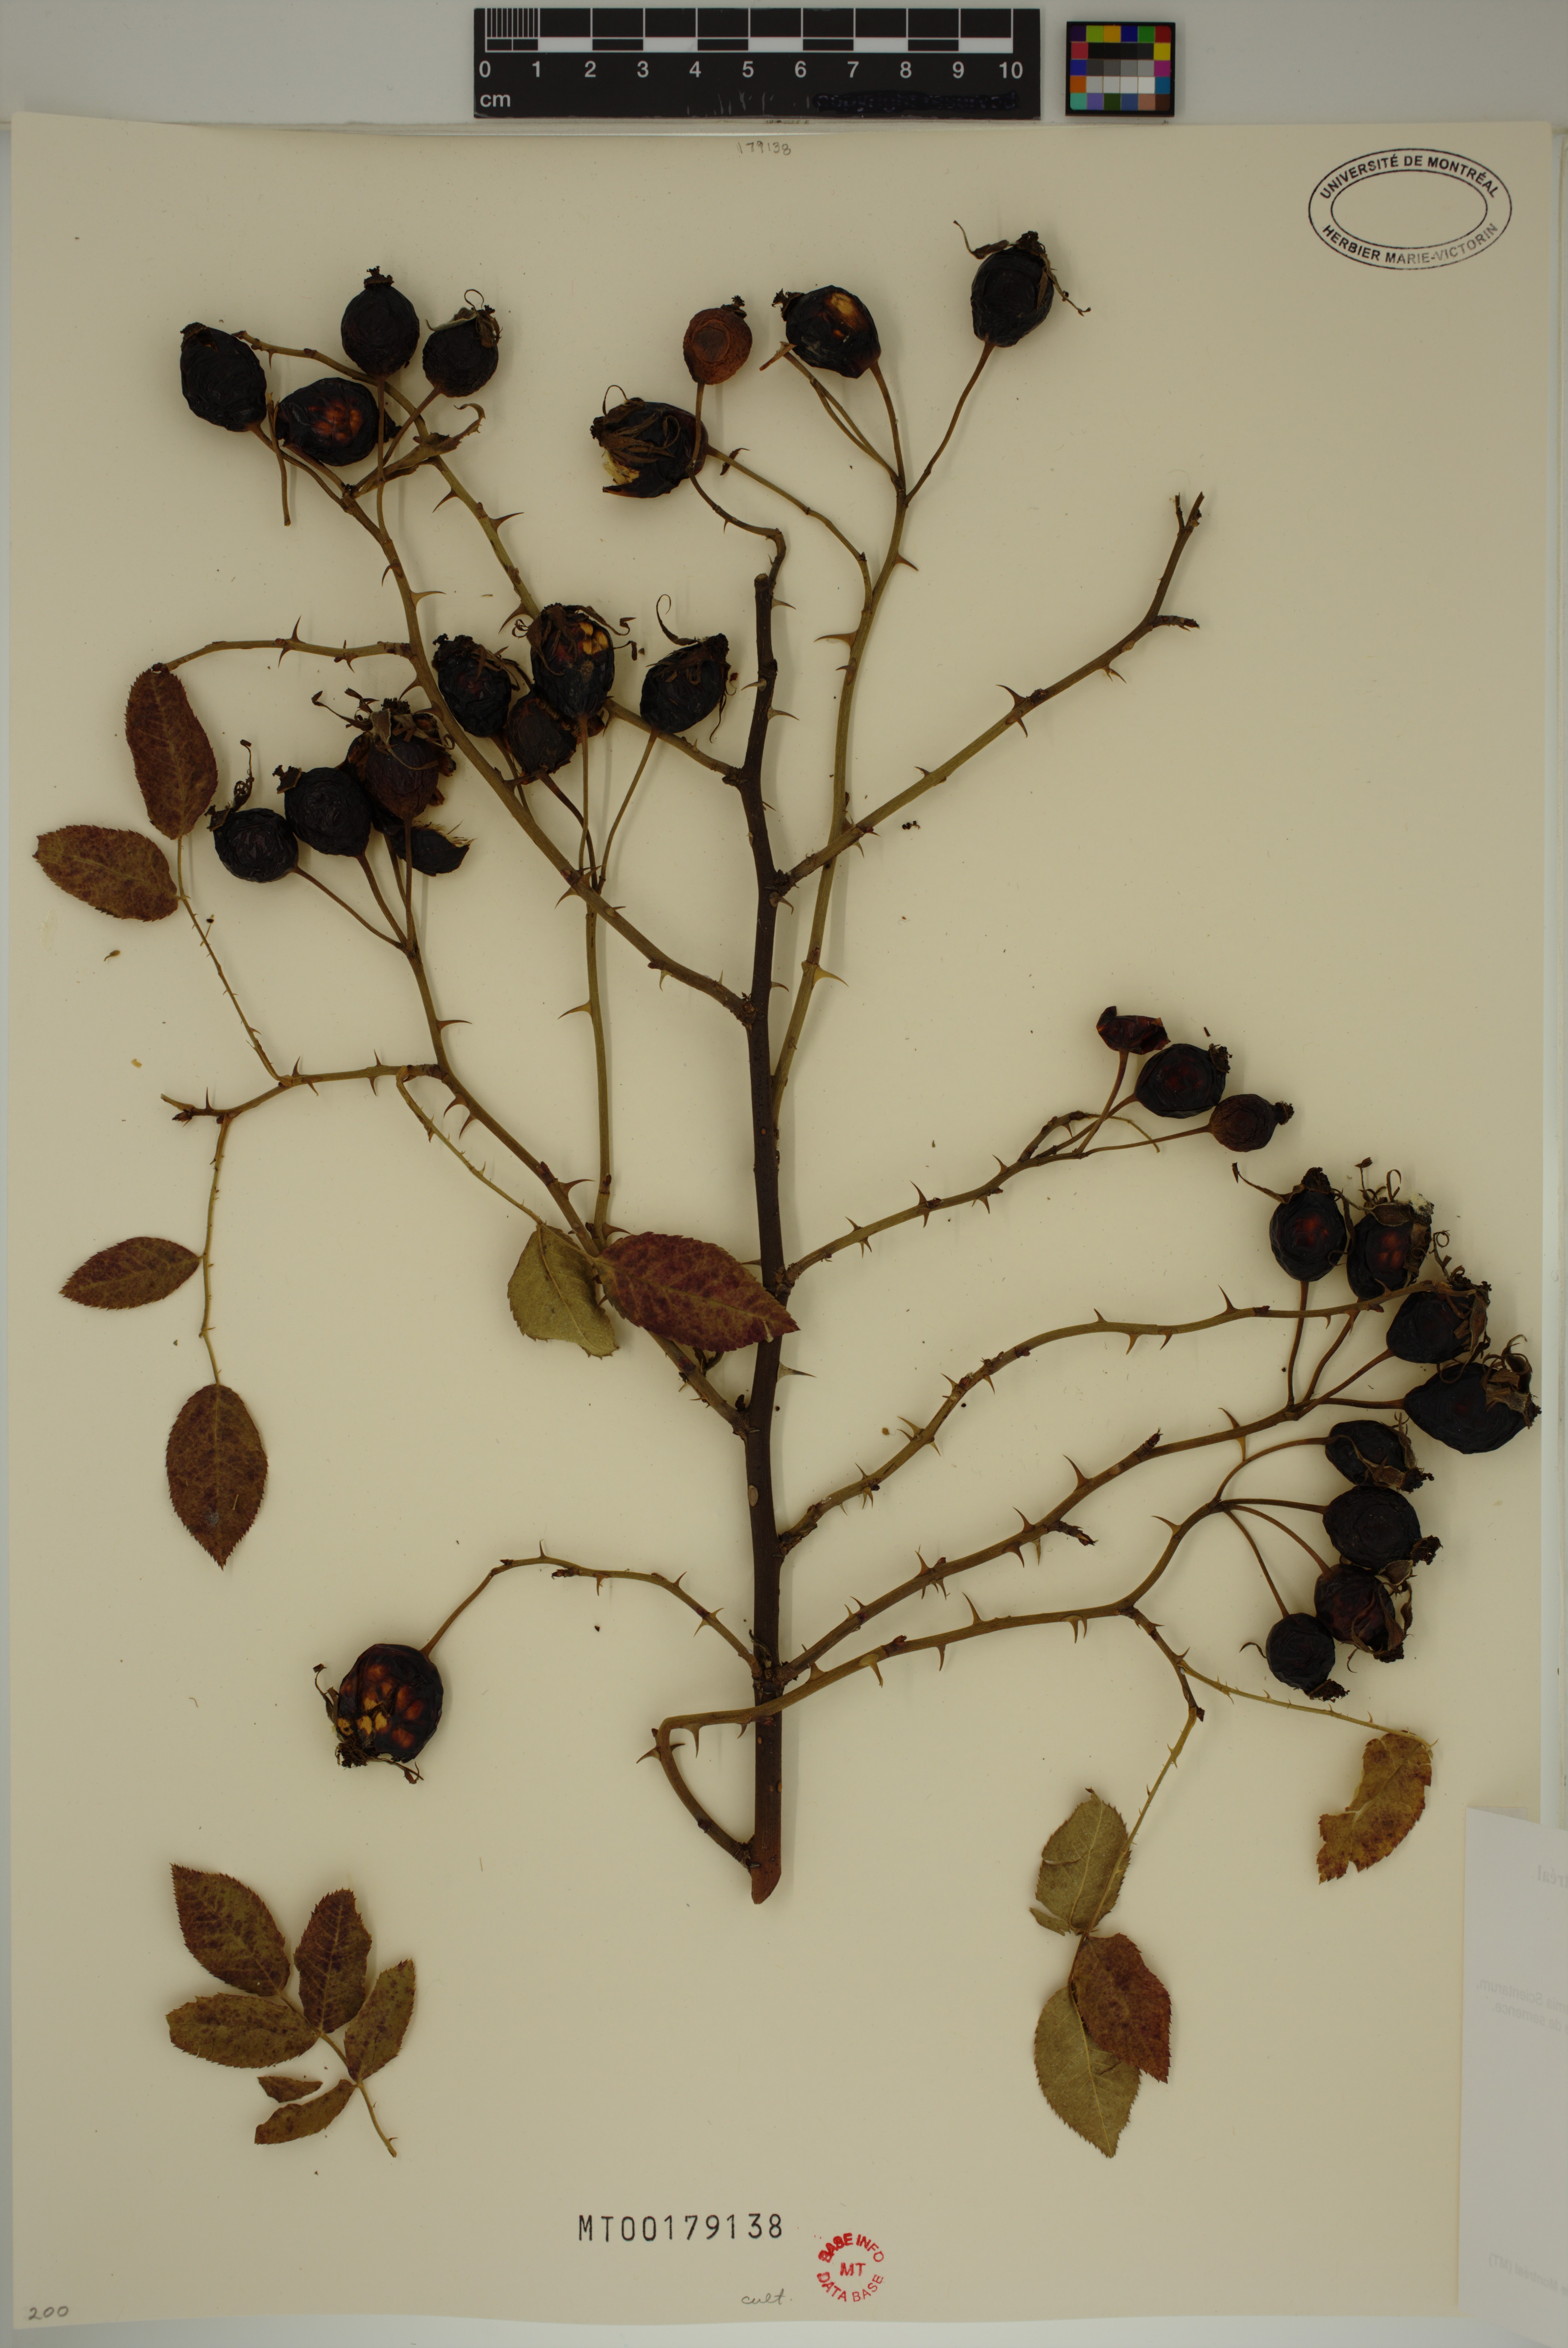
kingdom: Plantae
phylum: Tracheophyta
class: Magnoliopsida
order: Rosales
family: Rosaceae
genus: Rosa
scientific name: Rosa alba
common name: White rose
